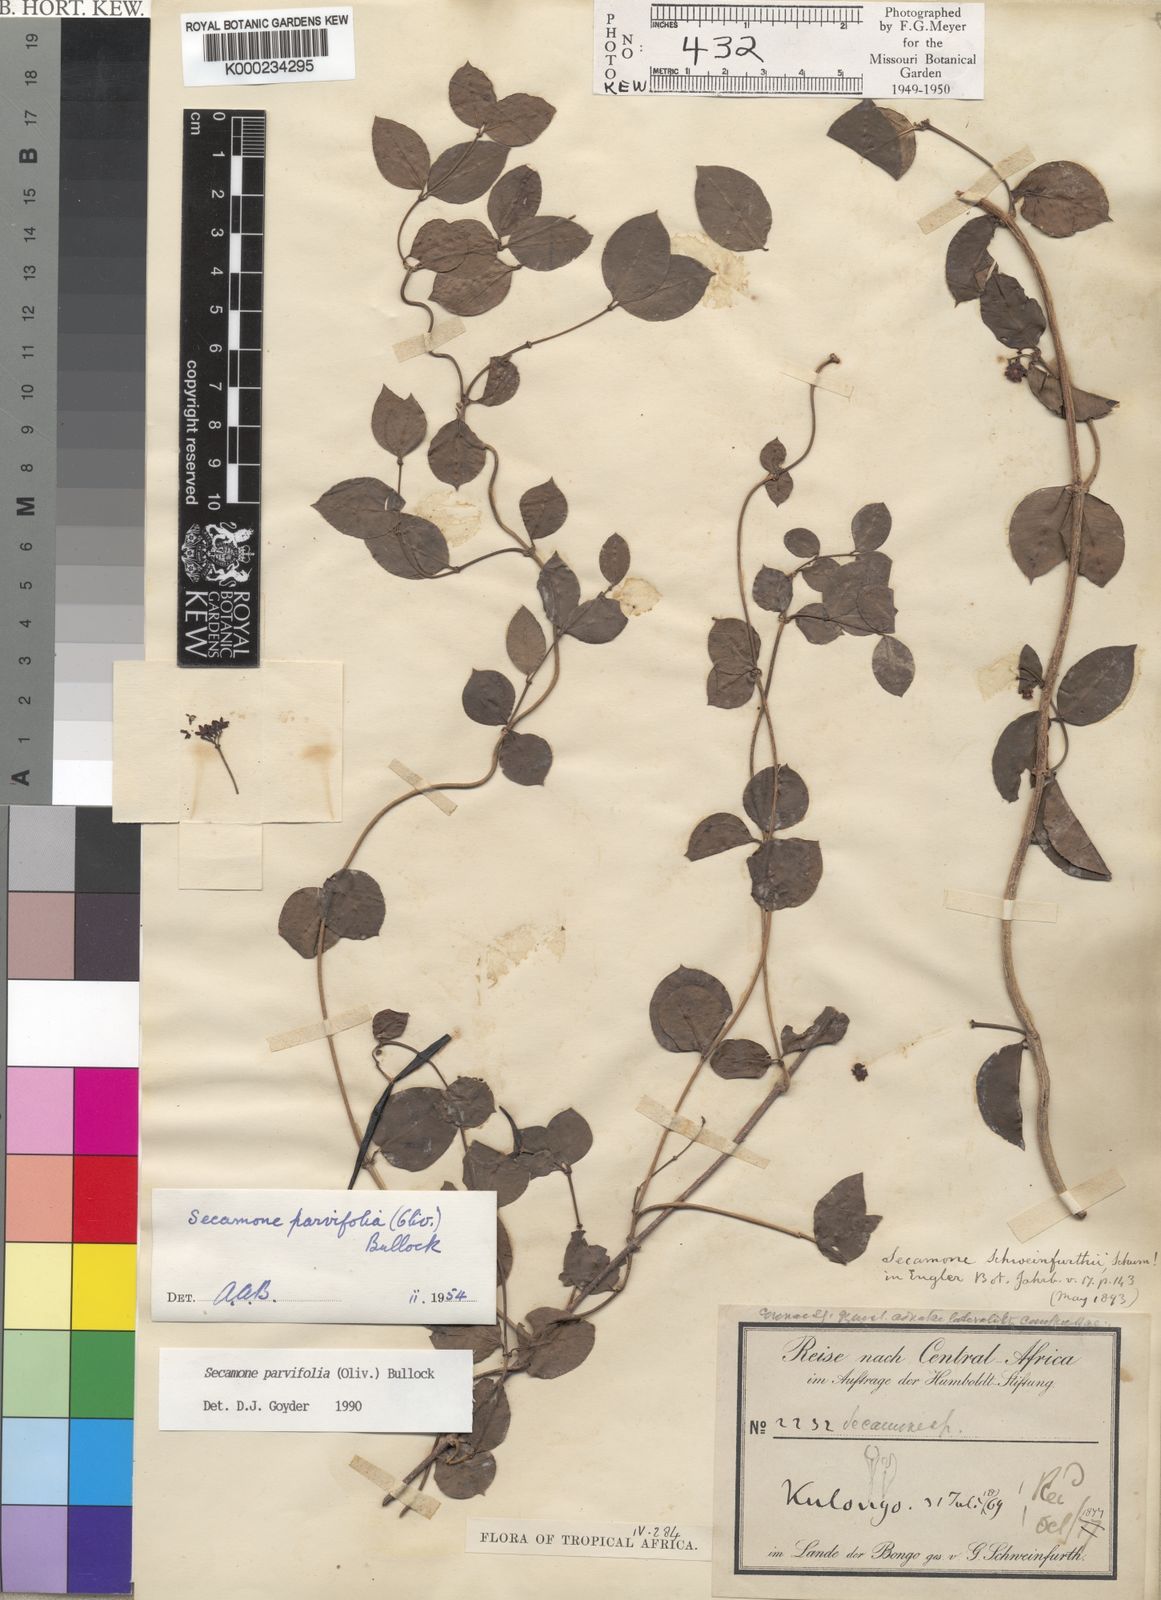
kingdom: Plantae
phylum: Tracheophyta
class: Magnoliopsida
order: Gentianales
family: Apocynaceae
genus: Secamone
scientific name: Secamone schweinfurthii
